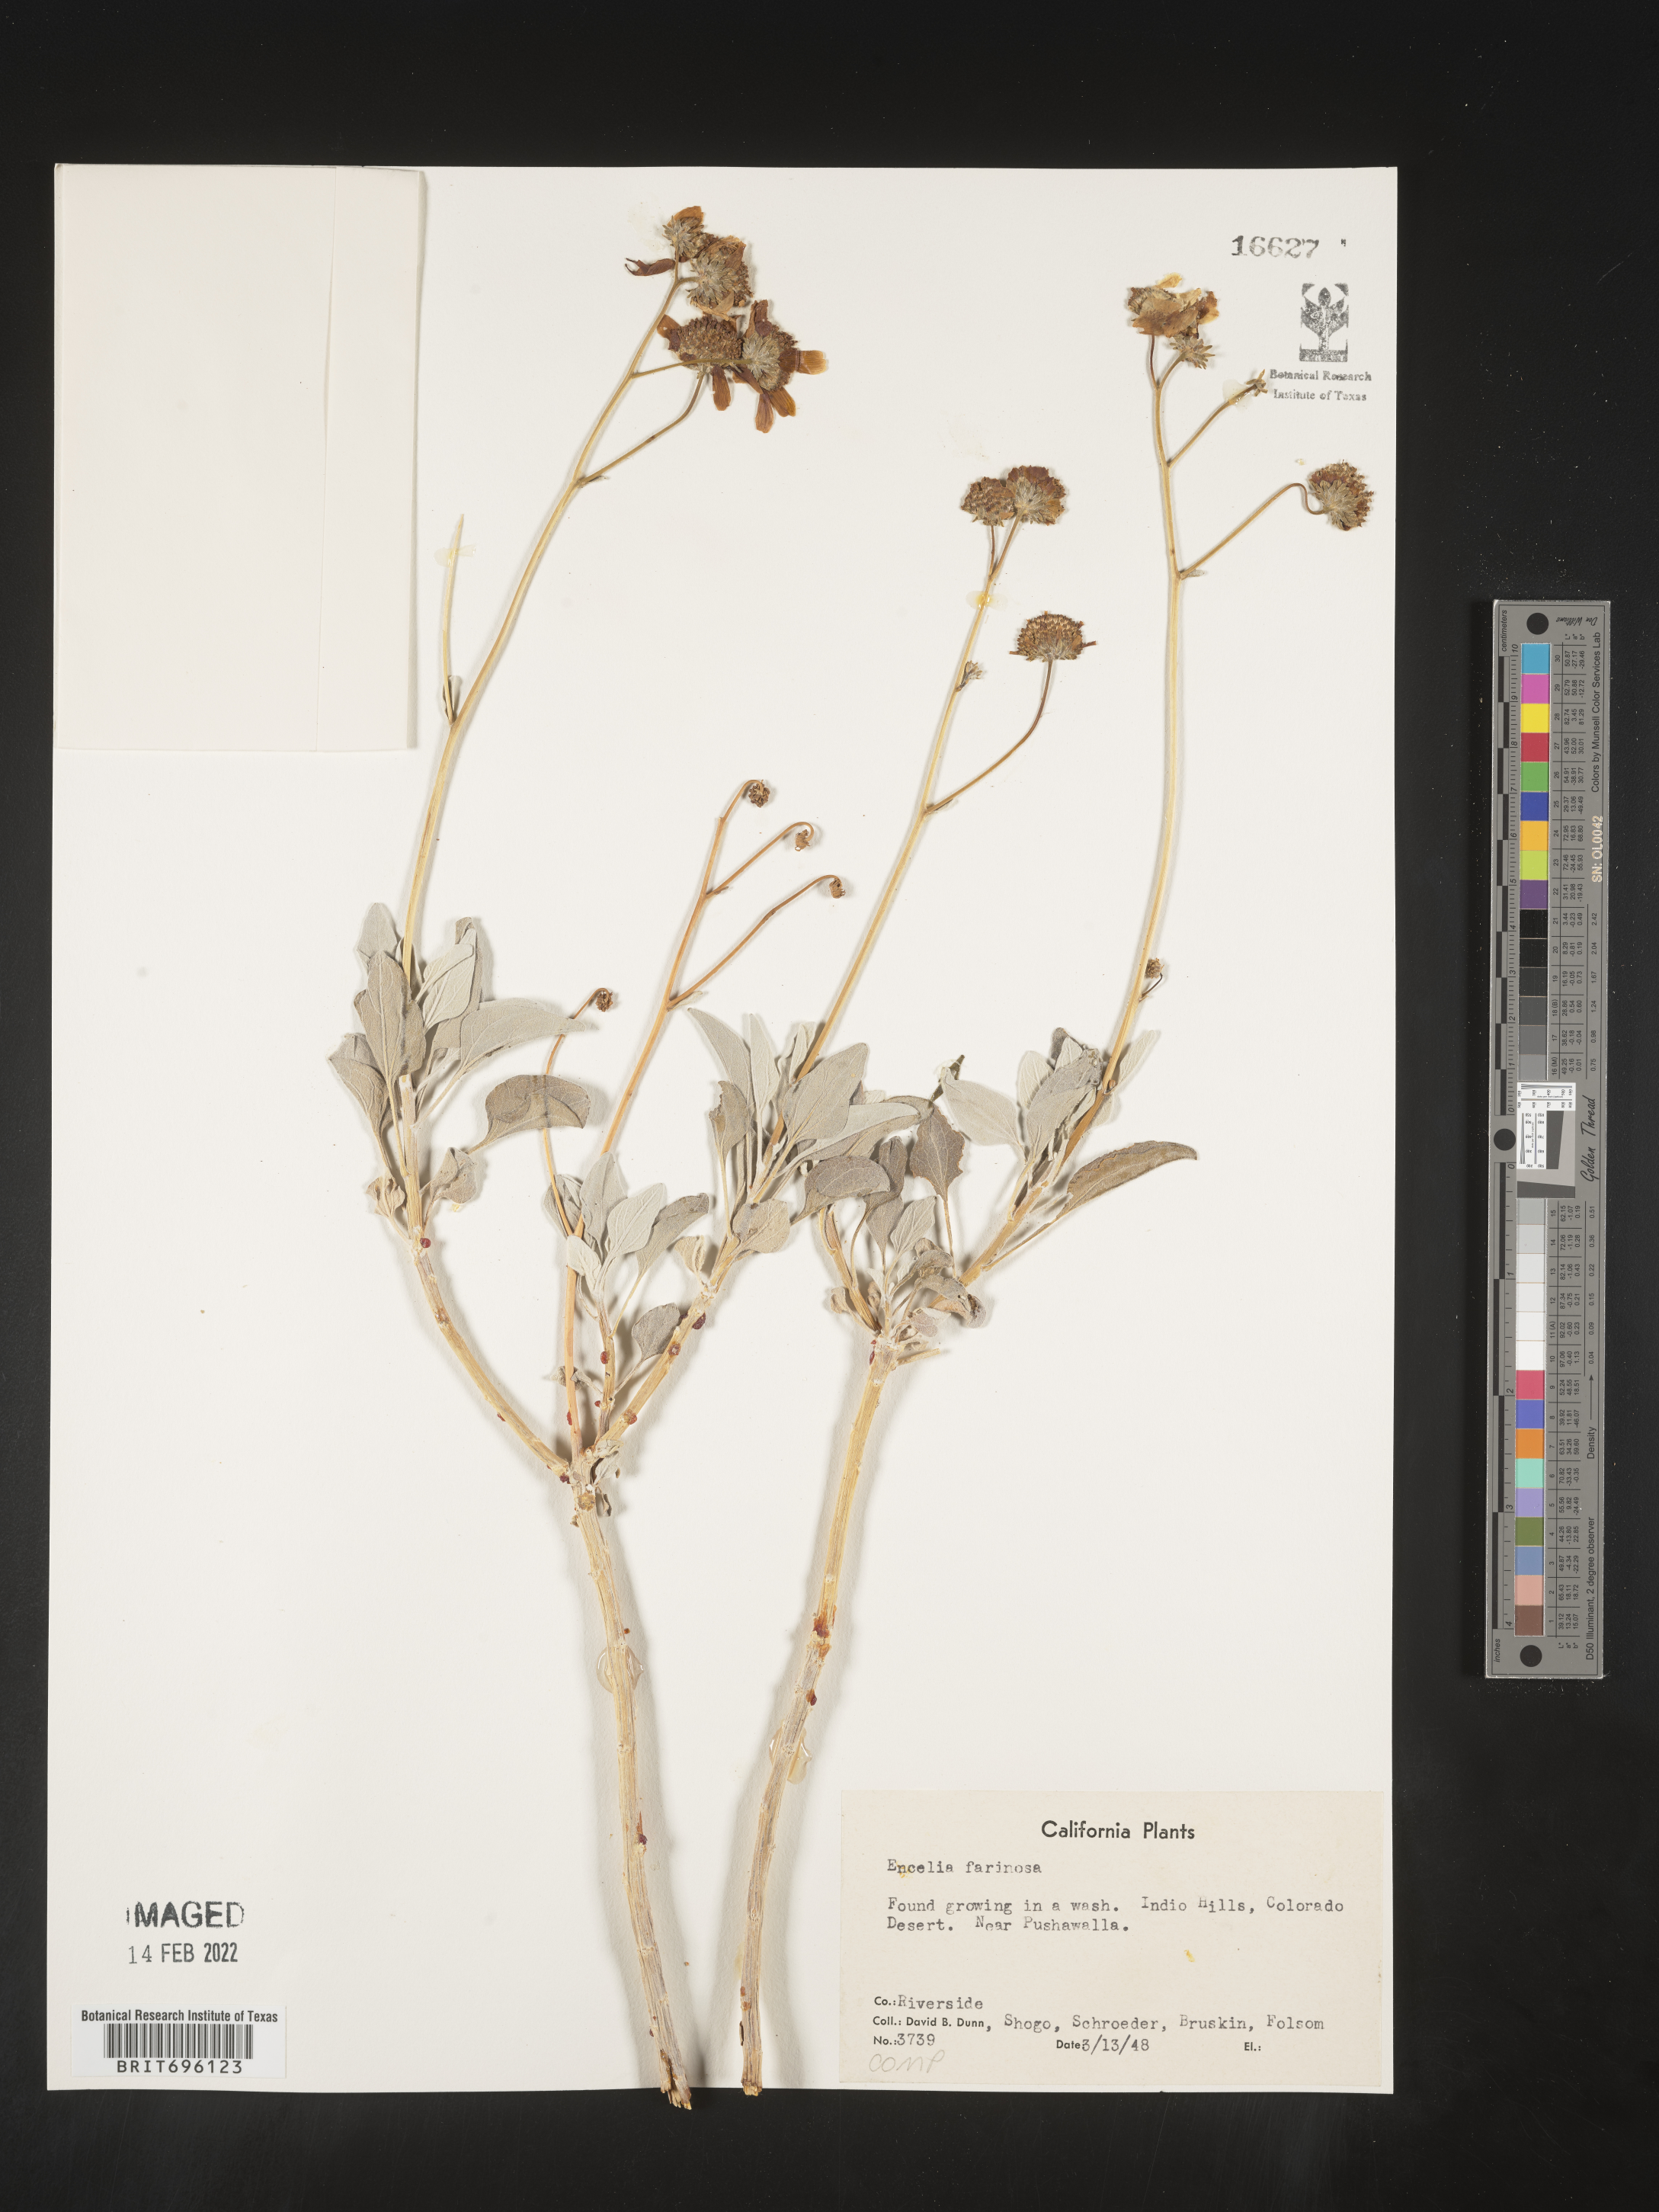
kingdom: Plantae
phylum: Tracheophyta
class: Magnoliopsida
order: Asterales
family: Asteraceae
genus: Encelia
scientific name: Encelia farinosa
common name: Brittlebush
